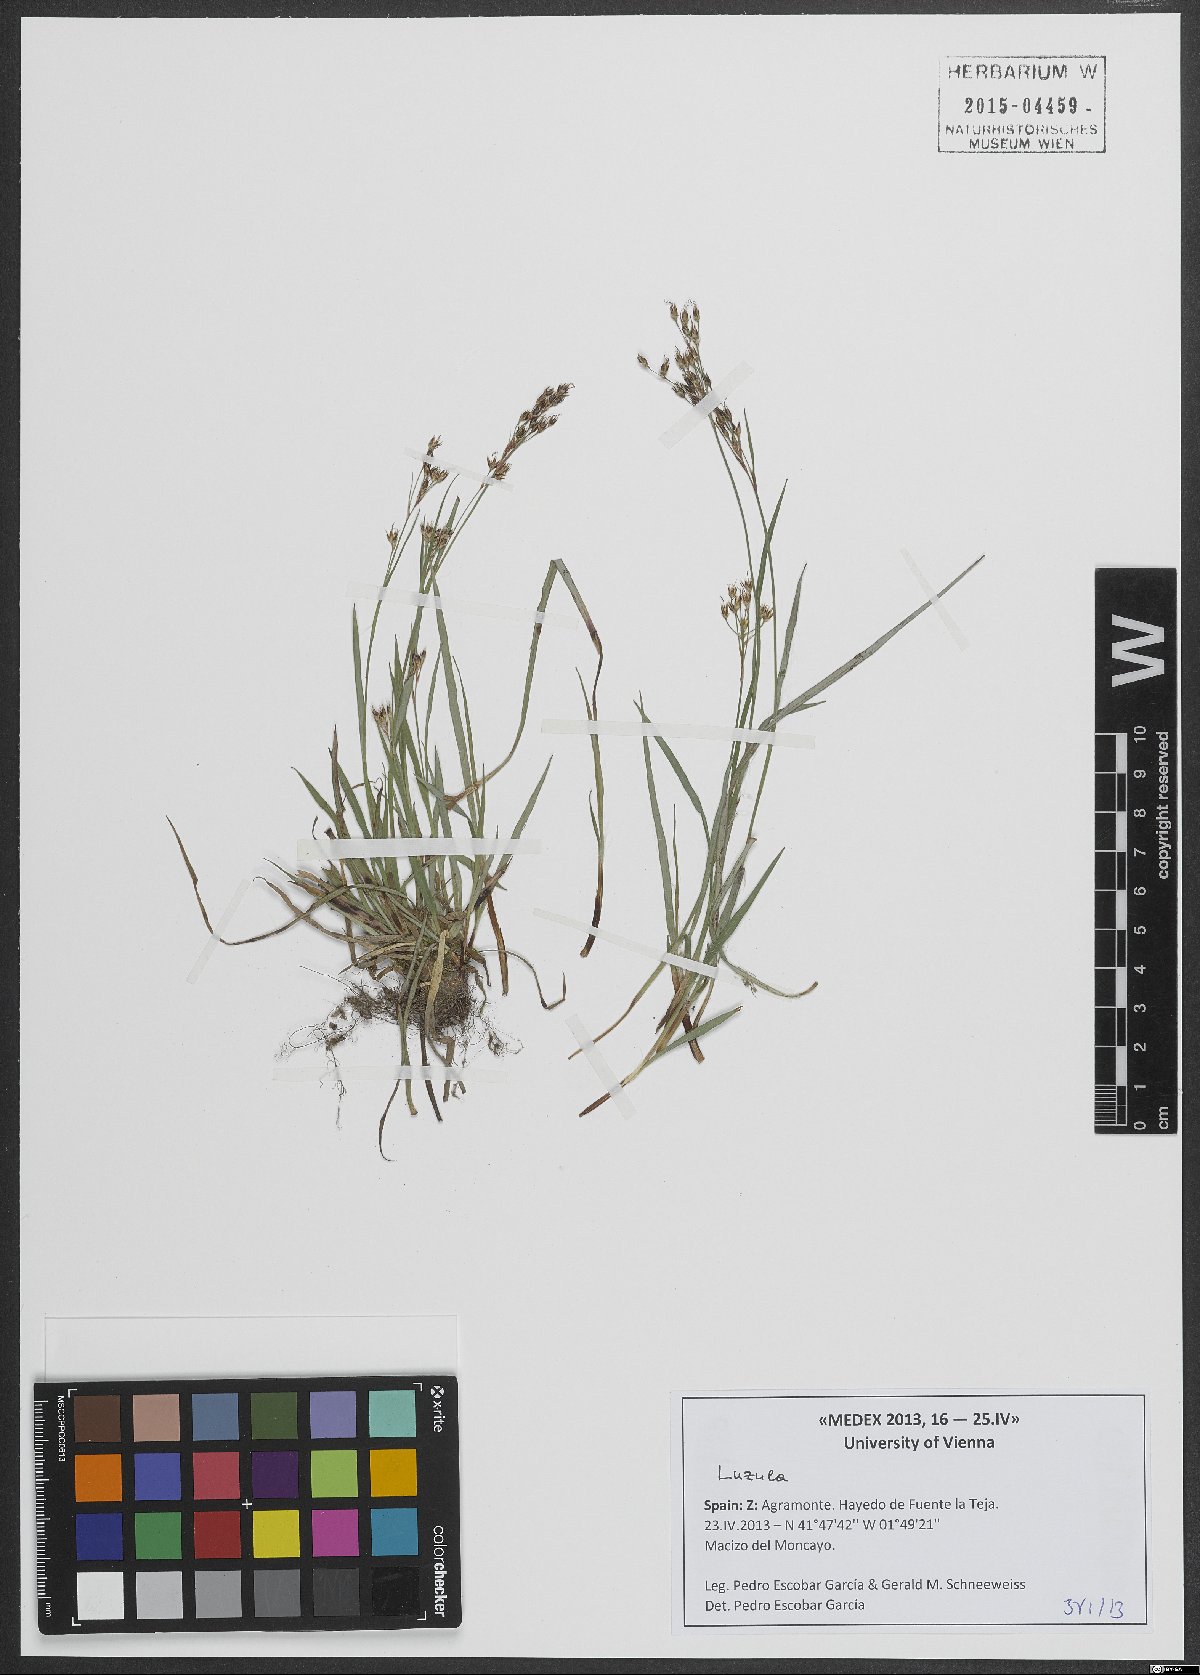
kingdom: Plantae
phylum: Tracheophyta
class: Liliopsida
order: Poales
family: Juncaceae
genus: Luzula
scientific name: Luzula
